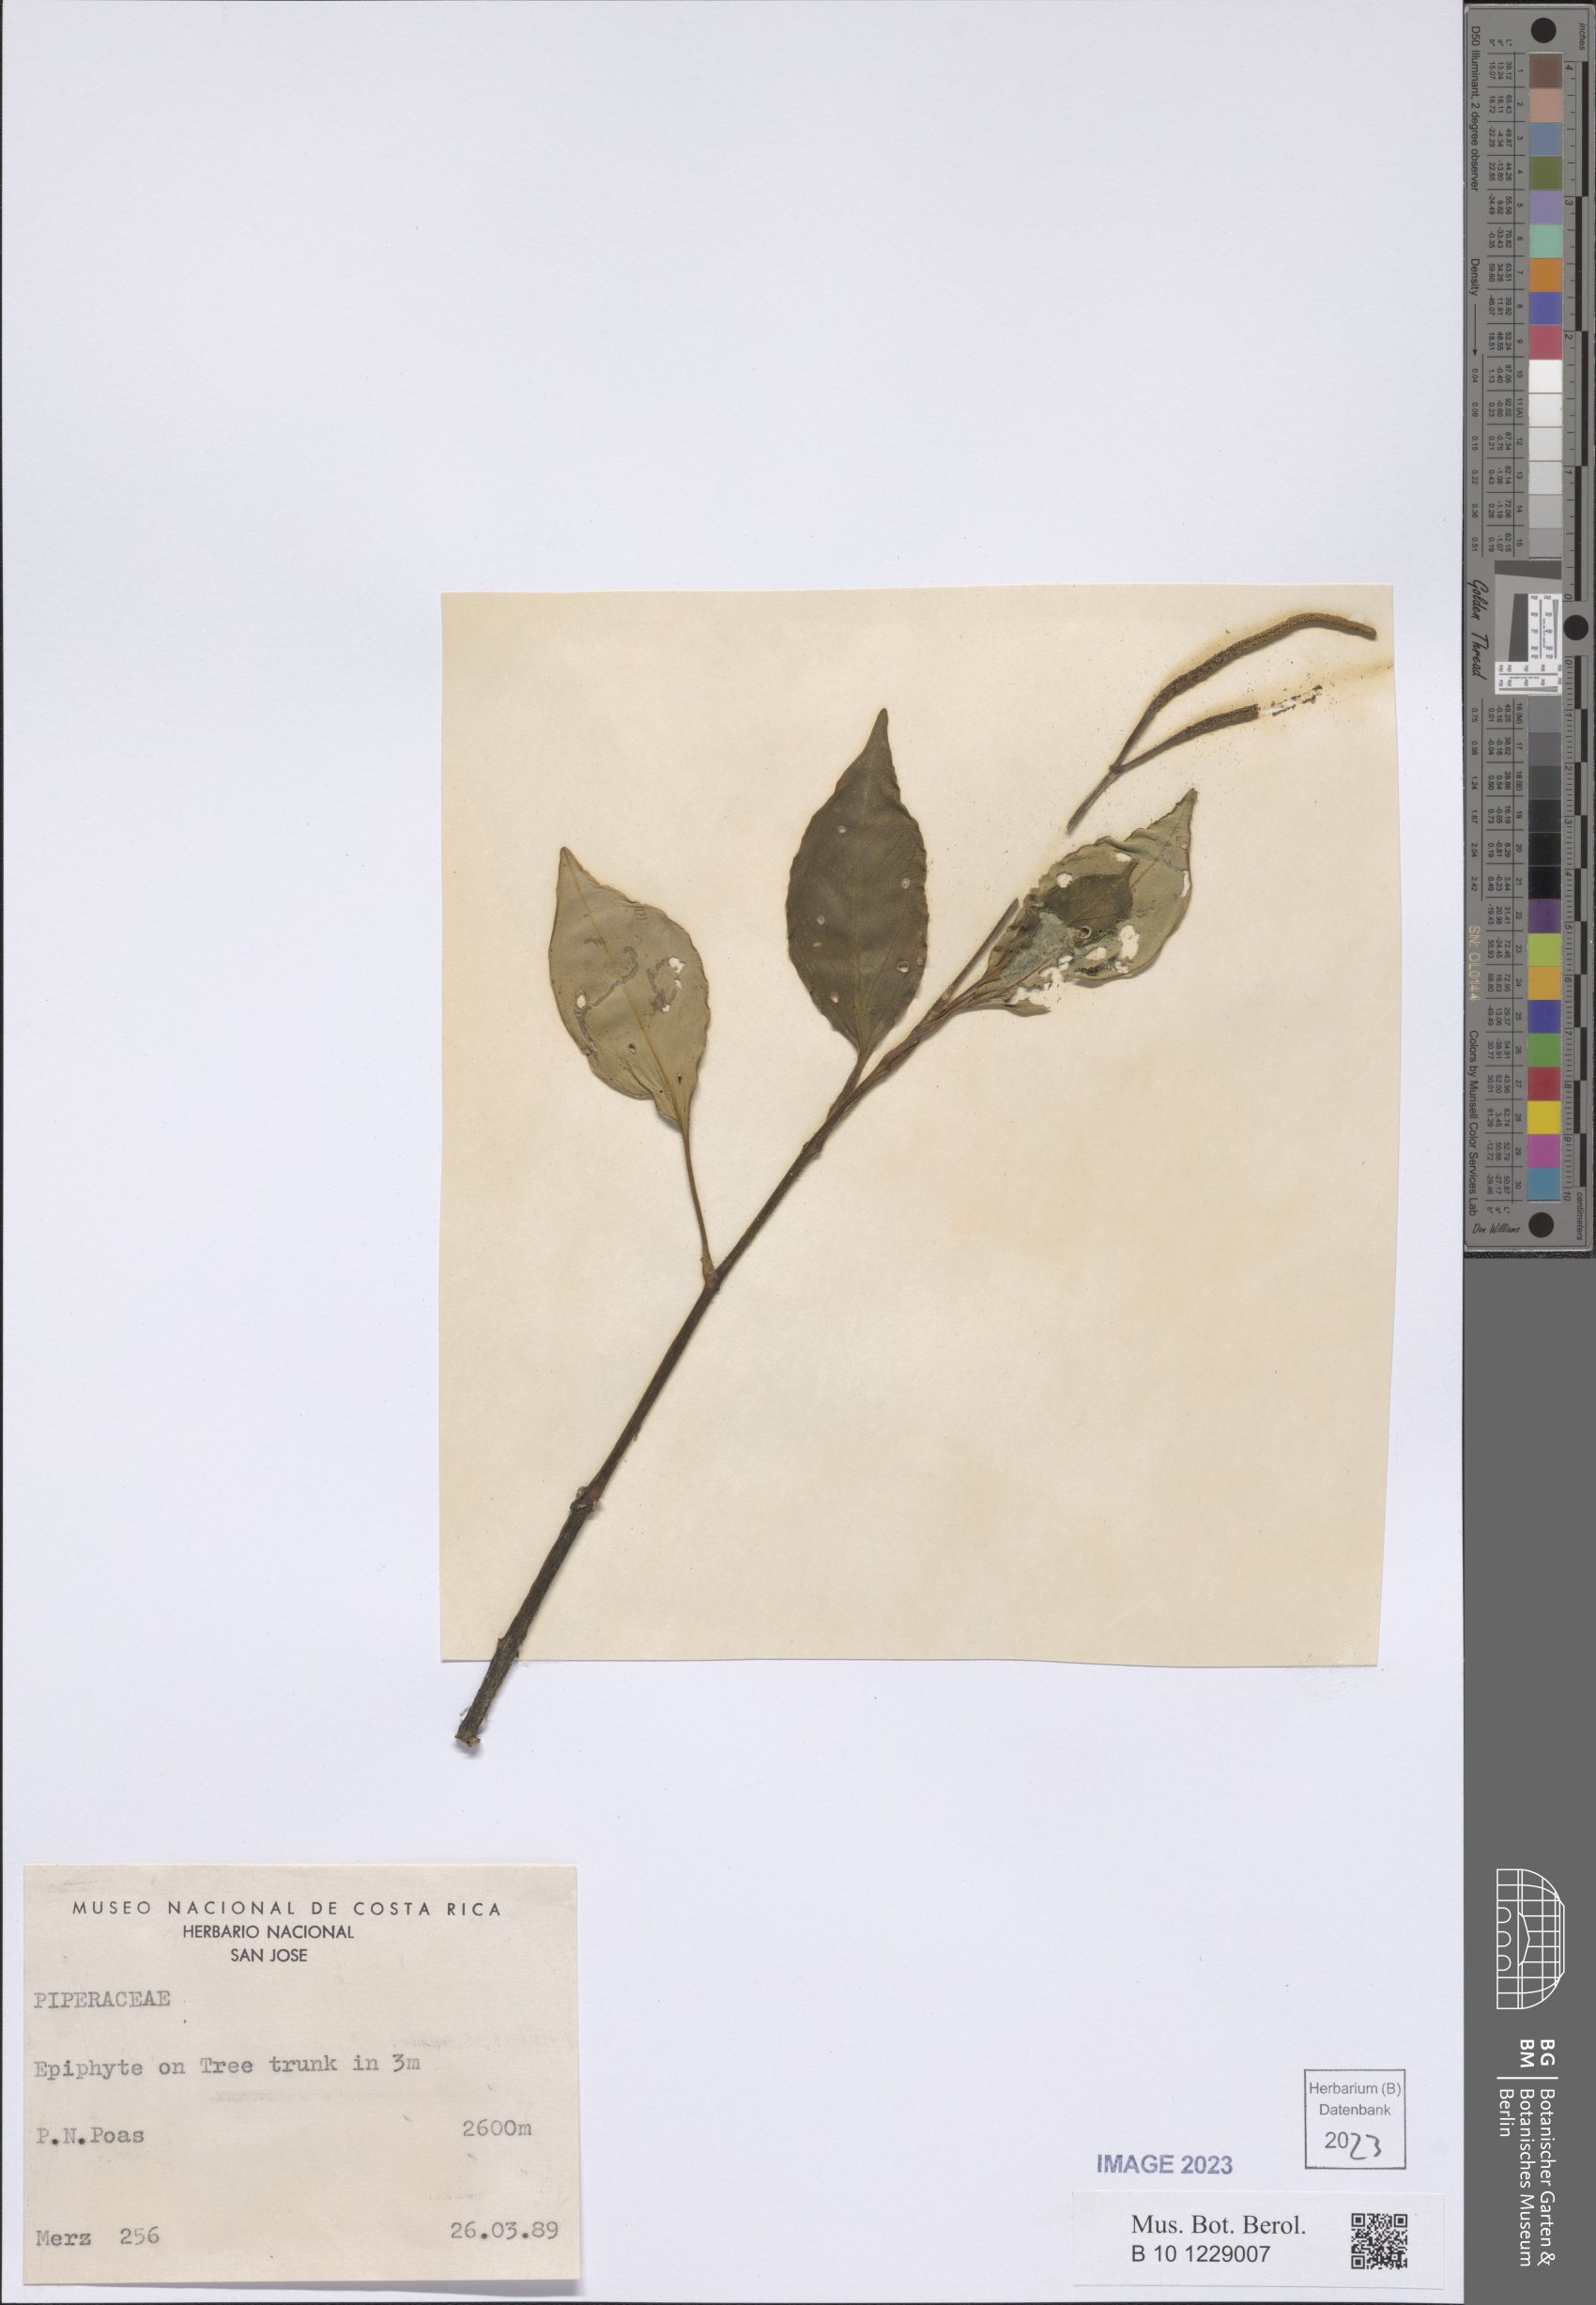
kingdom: Plantae
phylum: Tracheophyta
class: Magnoliopsida
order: Piperales
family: Piperaceae
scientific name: Piperaceae
